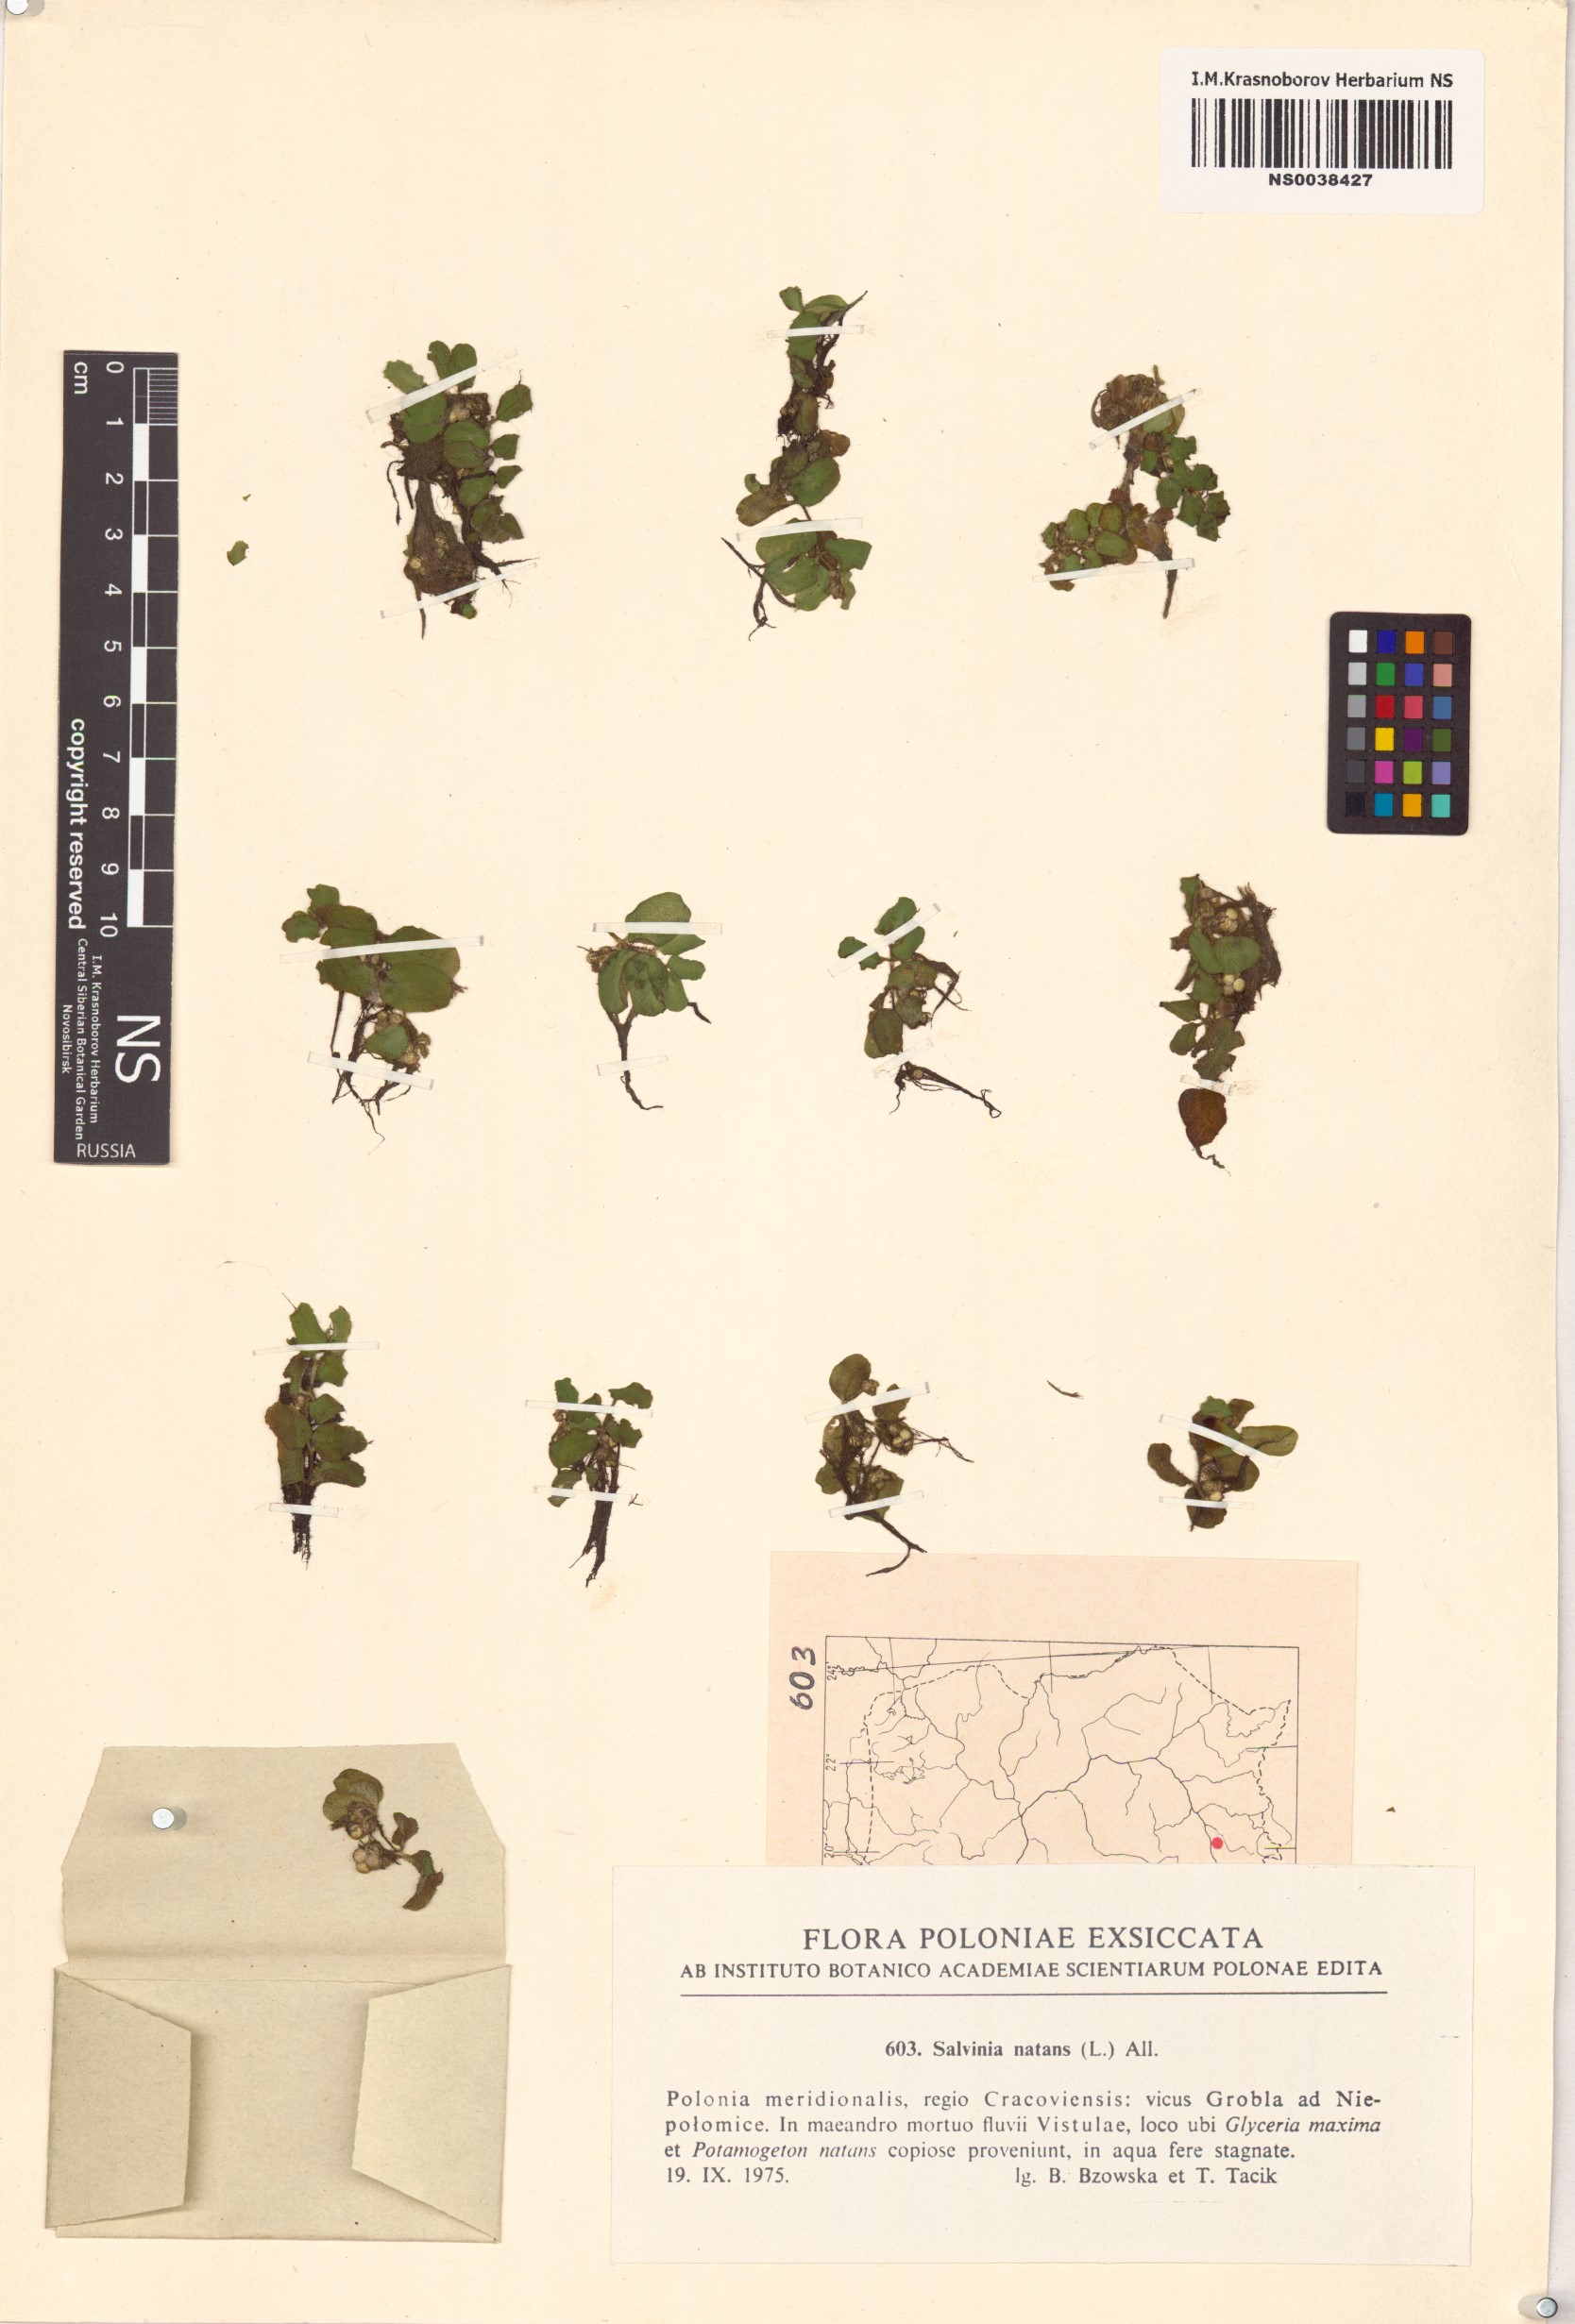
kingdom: Plantae
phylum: Tracheophyta
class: Polypodiopsida
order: Salviniales
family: Salviniaceae
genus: Salvinia
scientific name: Salvinia natans
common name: Floating fern
